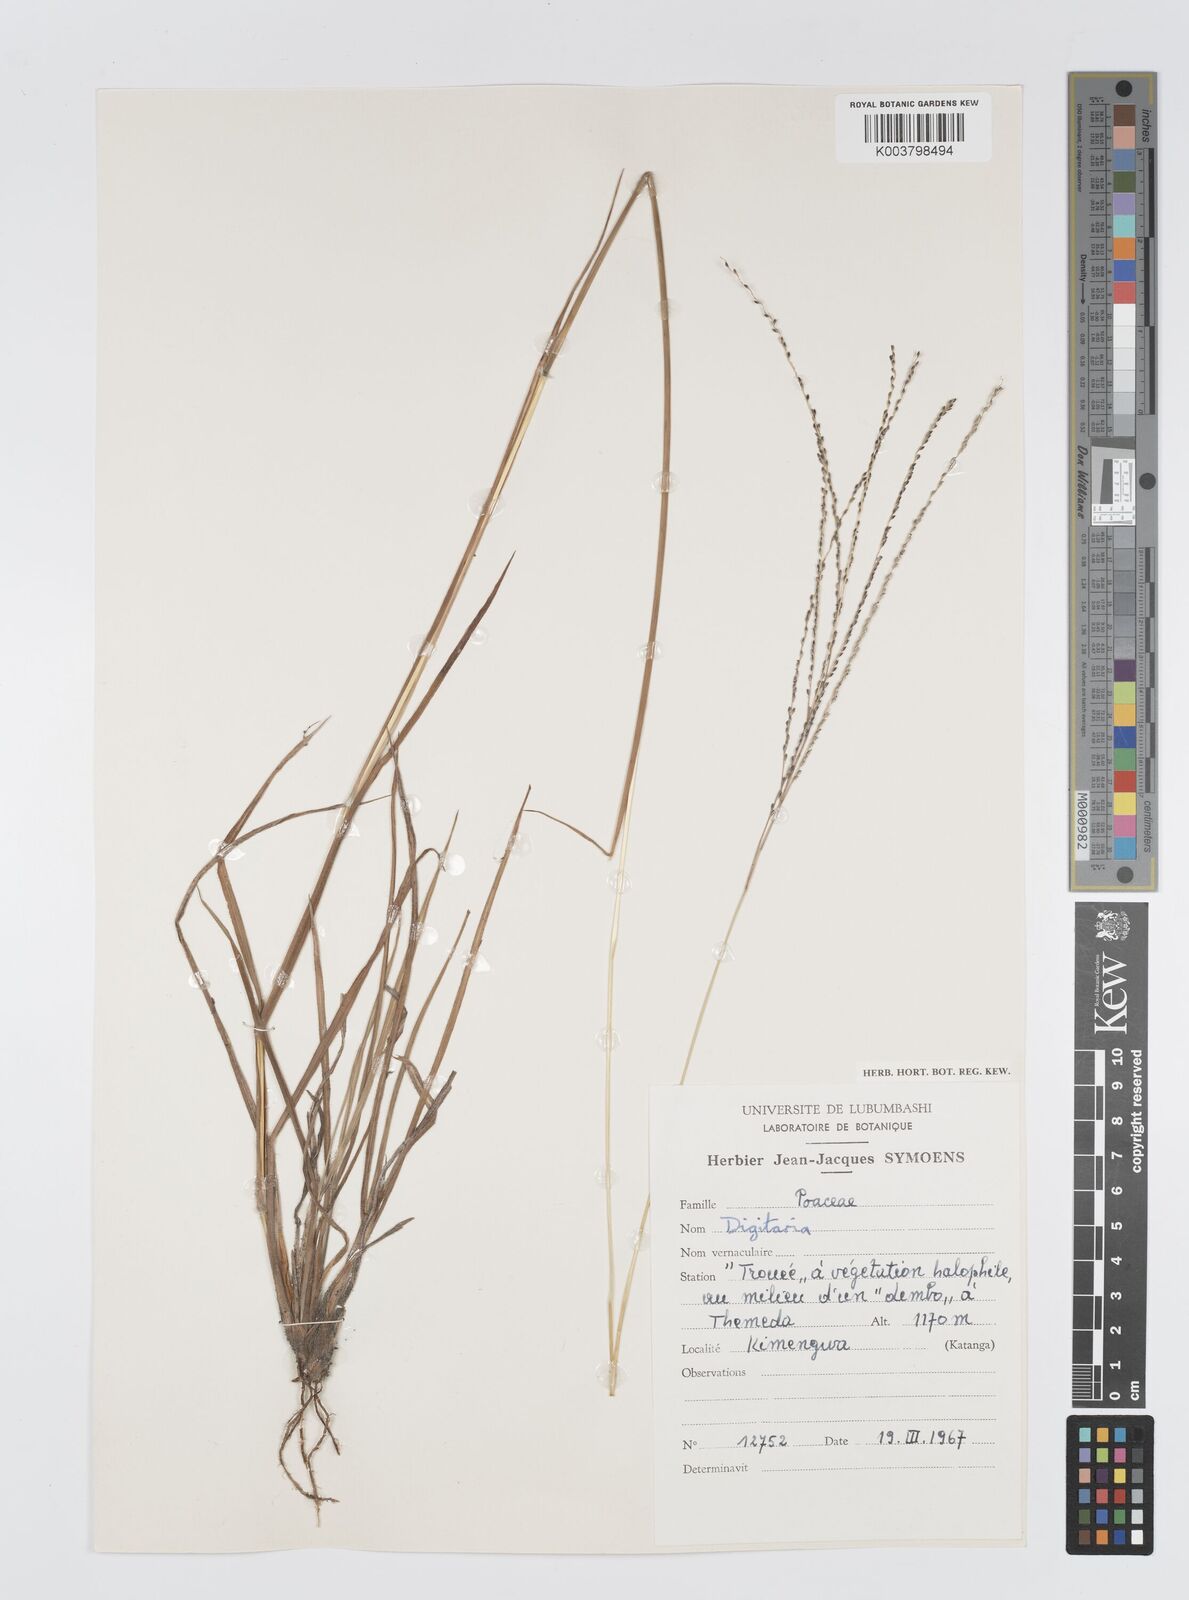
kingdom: Plantae
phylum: Tracheophyta
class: Liliopsida
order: Poales
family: Poaceae
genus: Digitaria
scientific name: Digitaria gazensis
